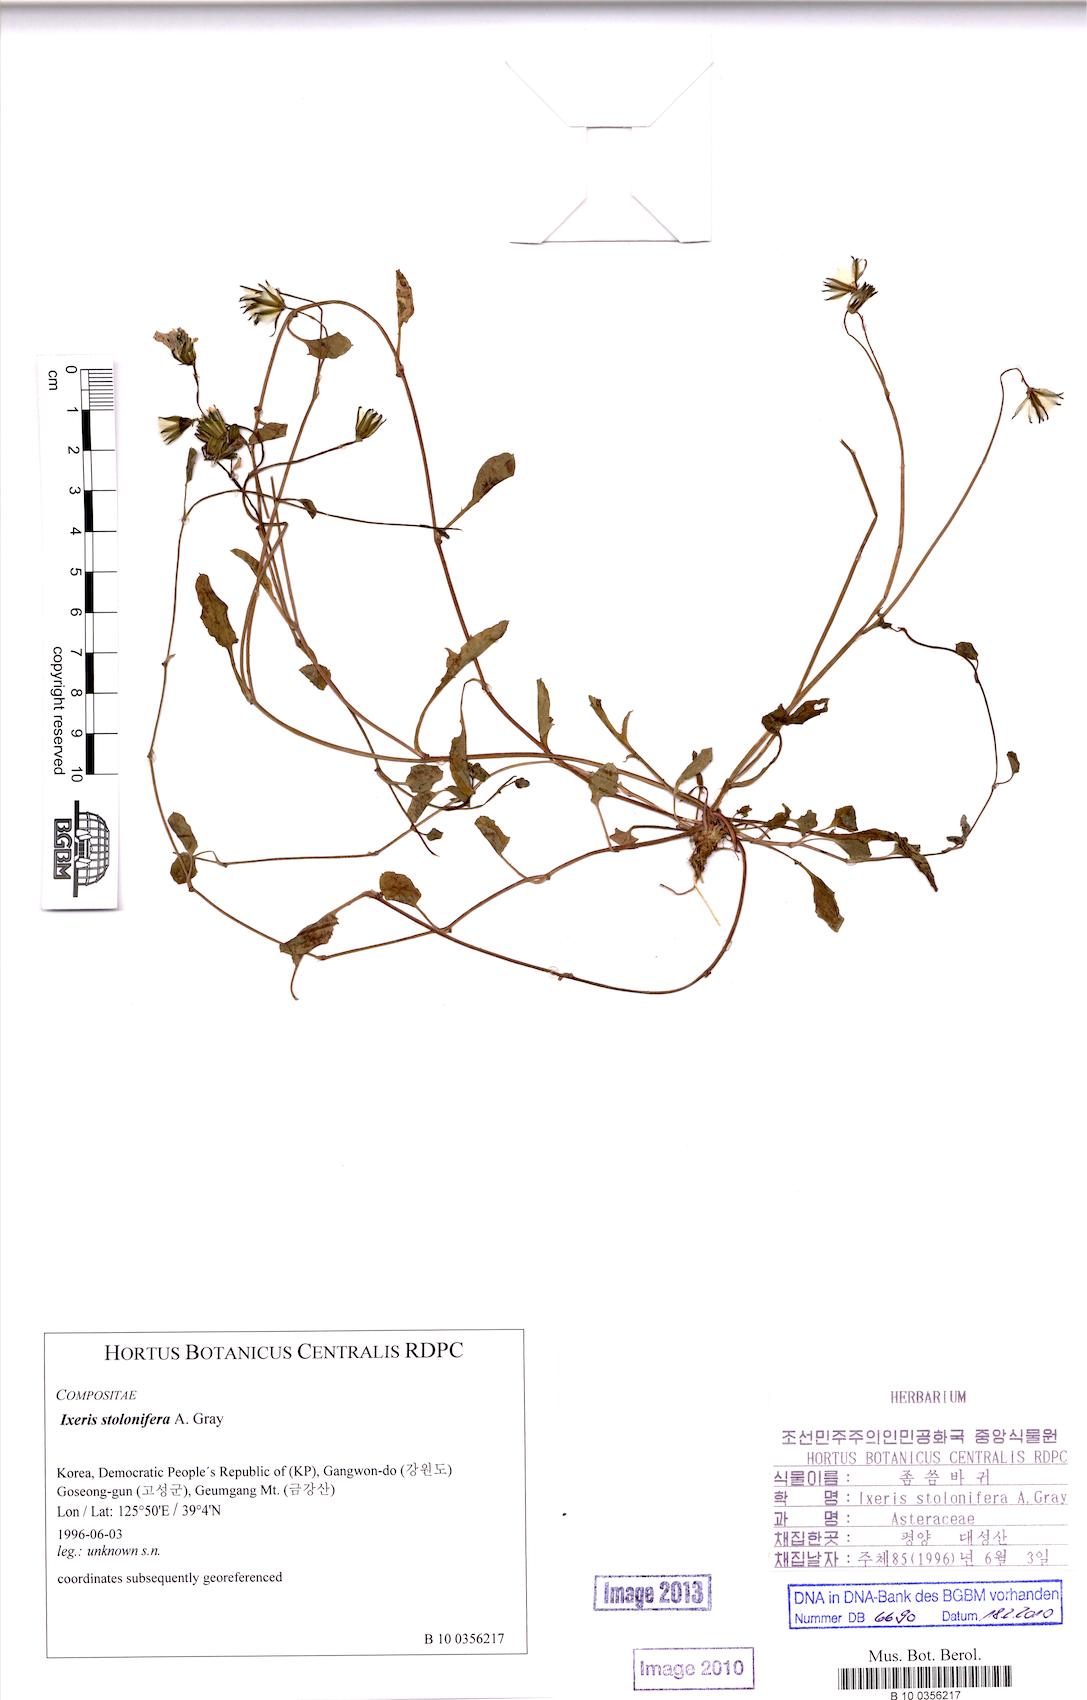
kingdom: Plantae
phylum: Tracheophyta
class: Magnoliopsida
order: Asterales
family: Asteraceae
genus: Ixeris
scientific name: Ixeris stolonifera
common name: Creeping lettuce
